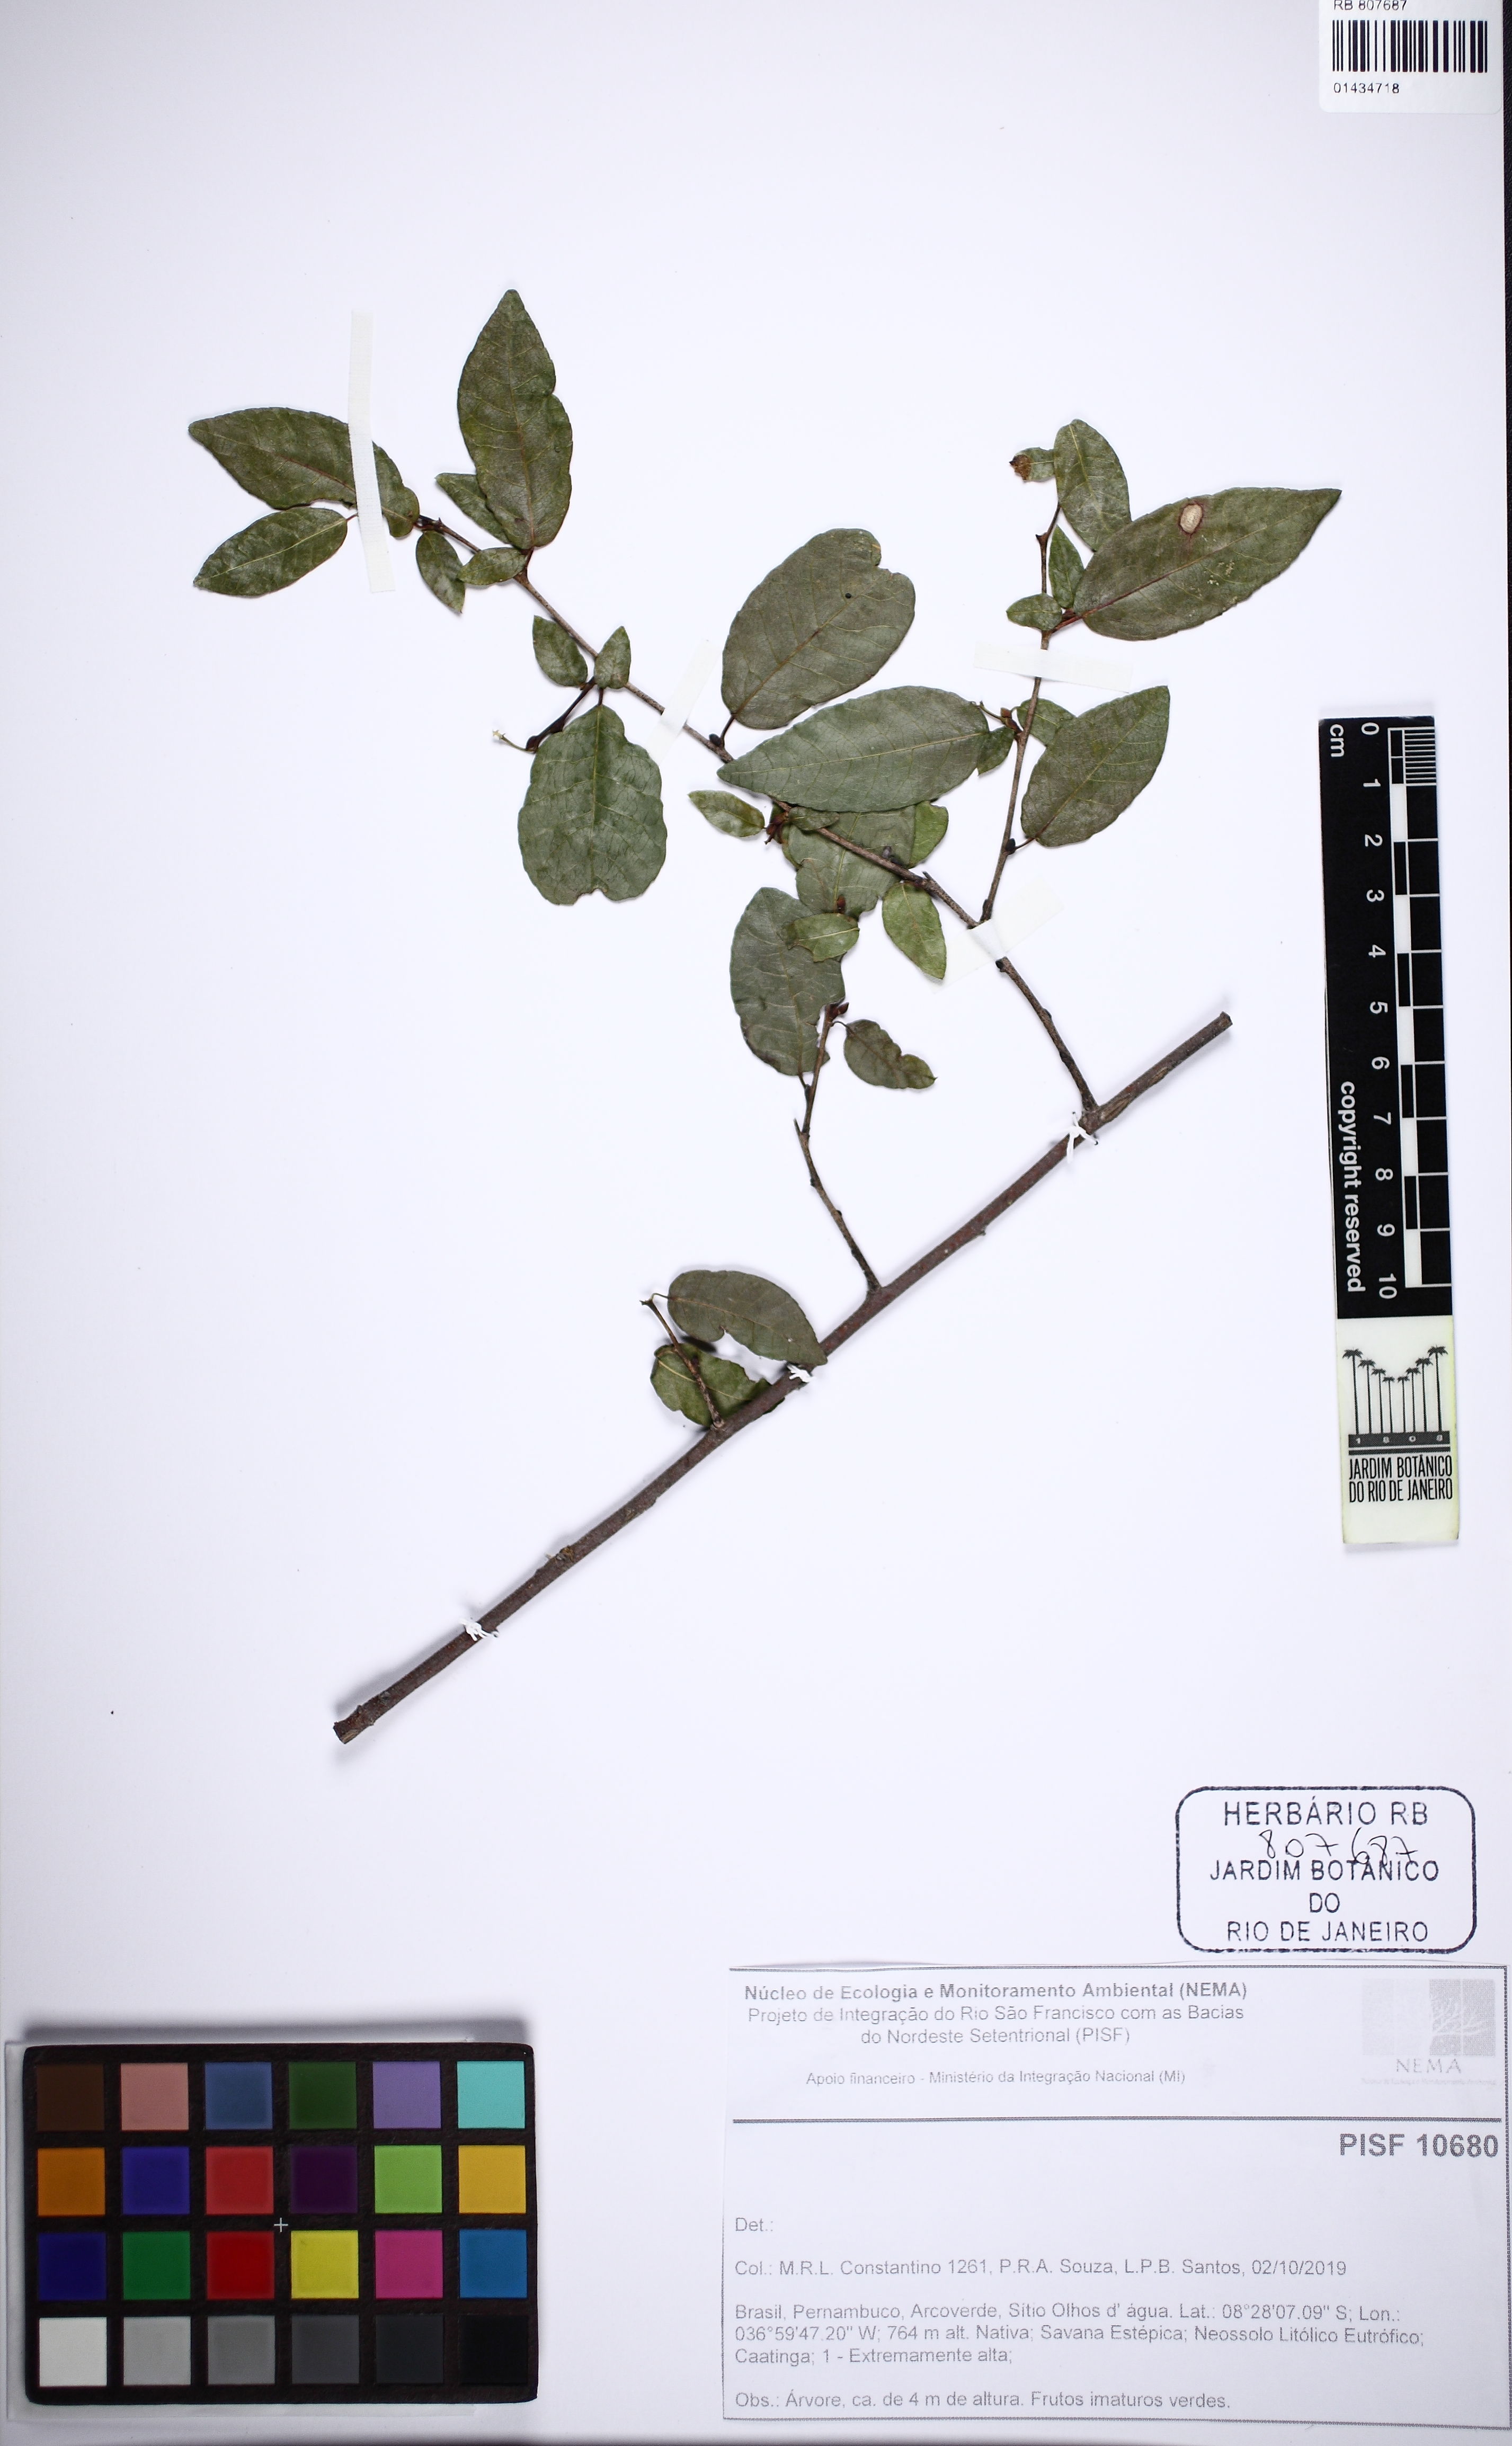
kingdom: Plantae
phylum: Tracheophyta
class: Magnoliopsida
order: Malpighiales
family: Euphorbiaceae
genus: Sebastiania
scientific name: Sebastiania
